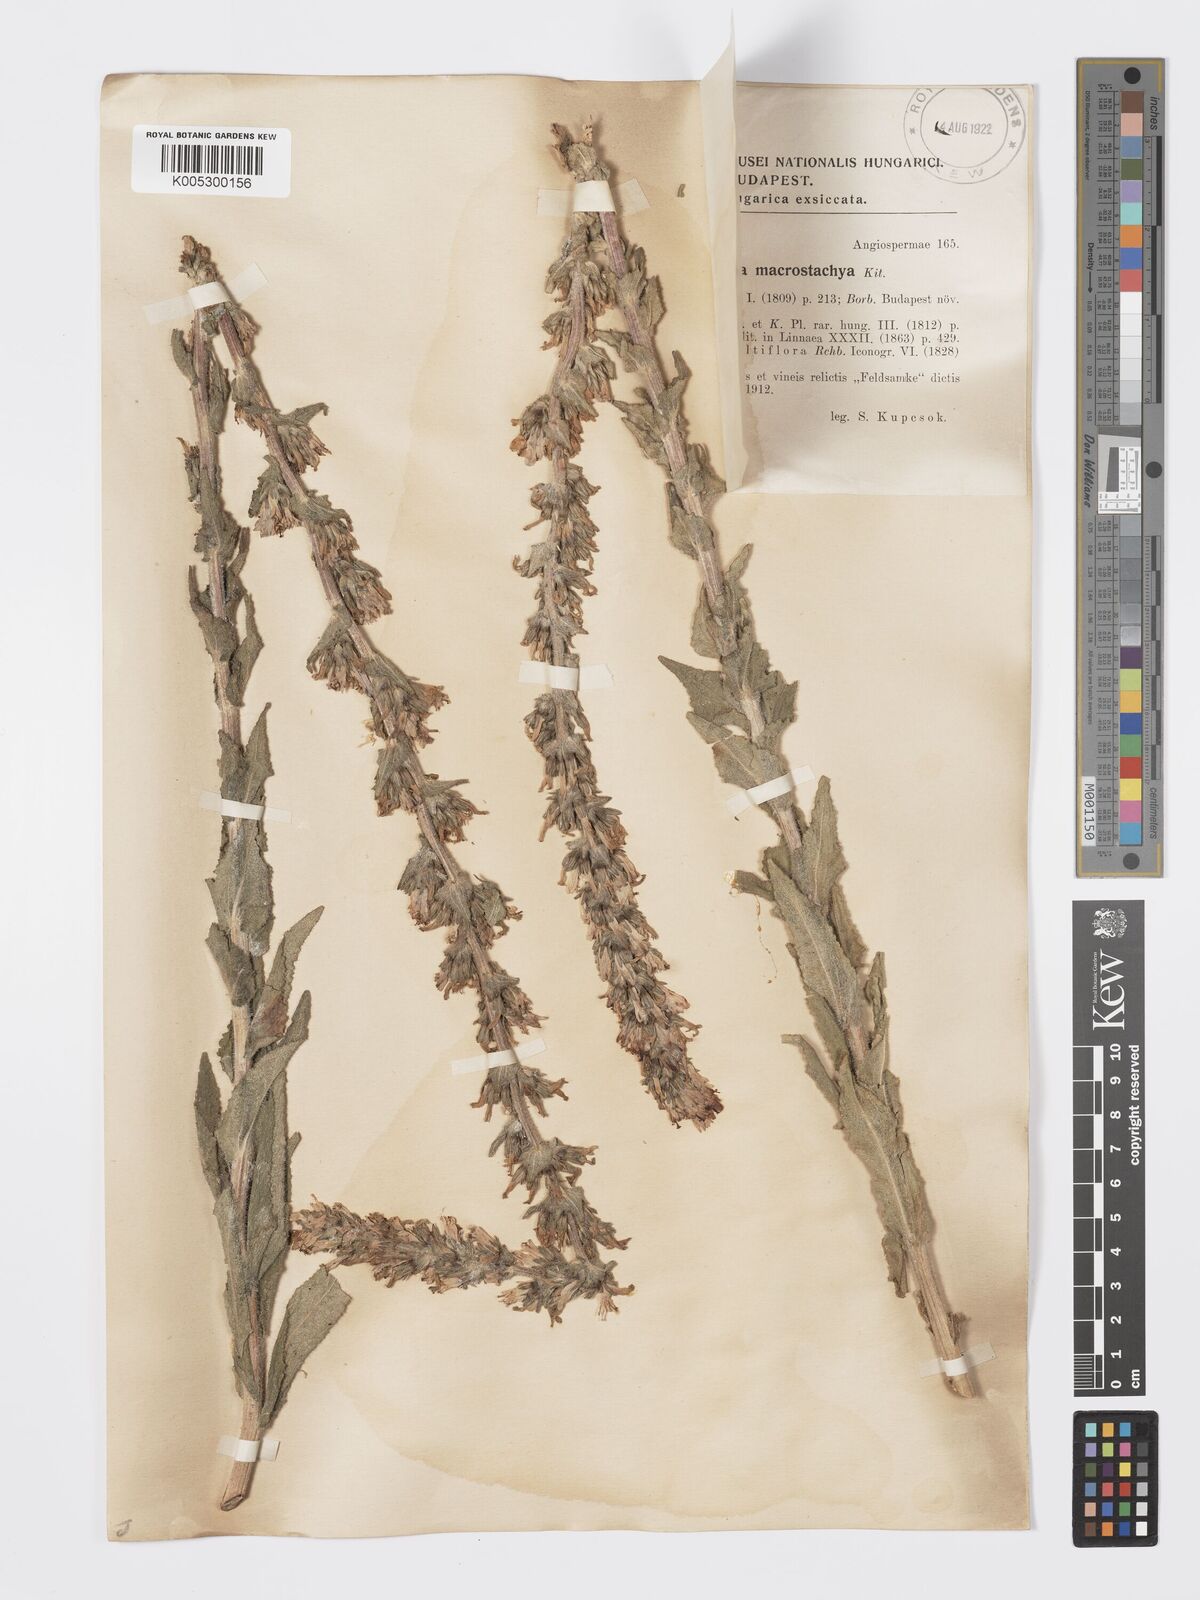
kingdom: Plantae
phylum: Tracheophyta
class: Magnoliopsida
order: Asterales
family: Campanulaceae
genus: Campanula
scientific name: Campanula macrostachya
